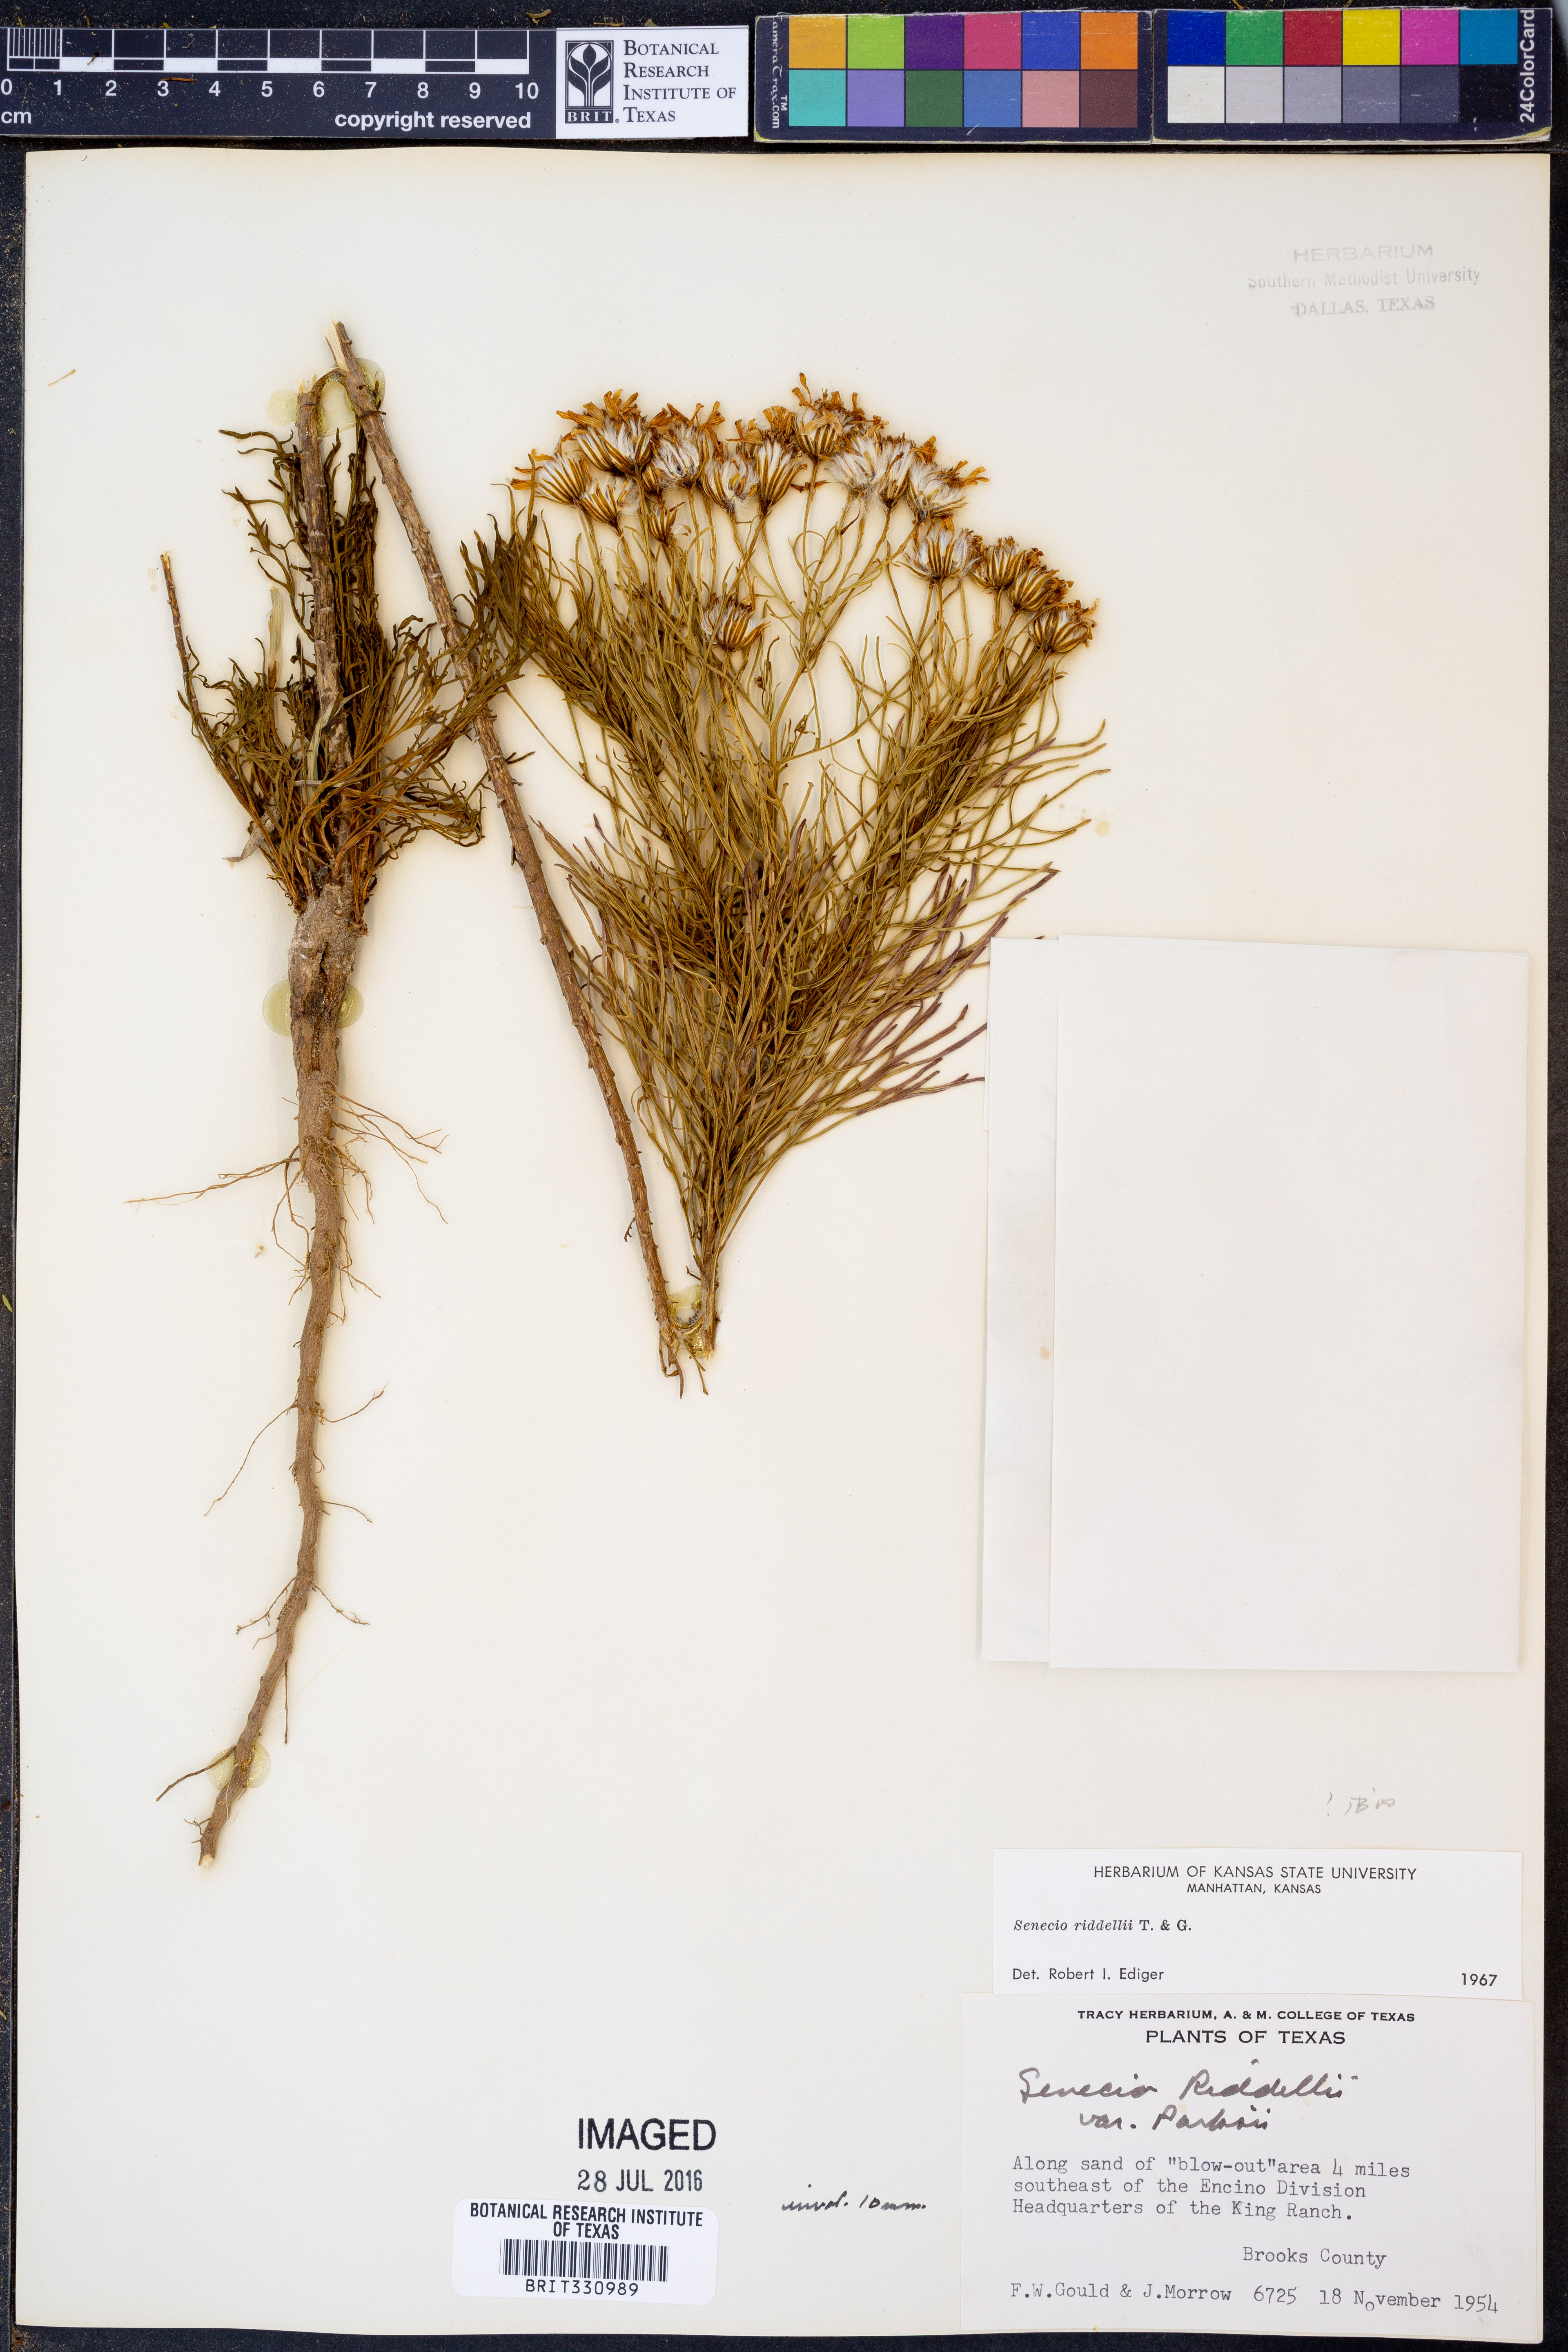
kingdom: Plantae
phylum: Tracheophyta
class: Magnoliopsida
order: Asterales
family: Asteraceae
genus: Senecio
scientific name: Senecio riddellii
